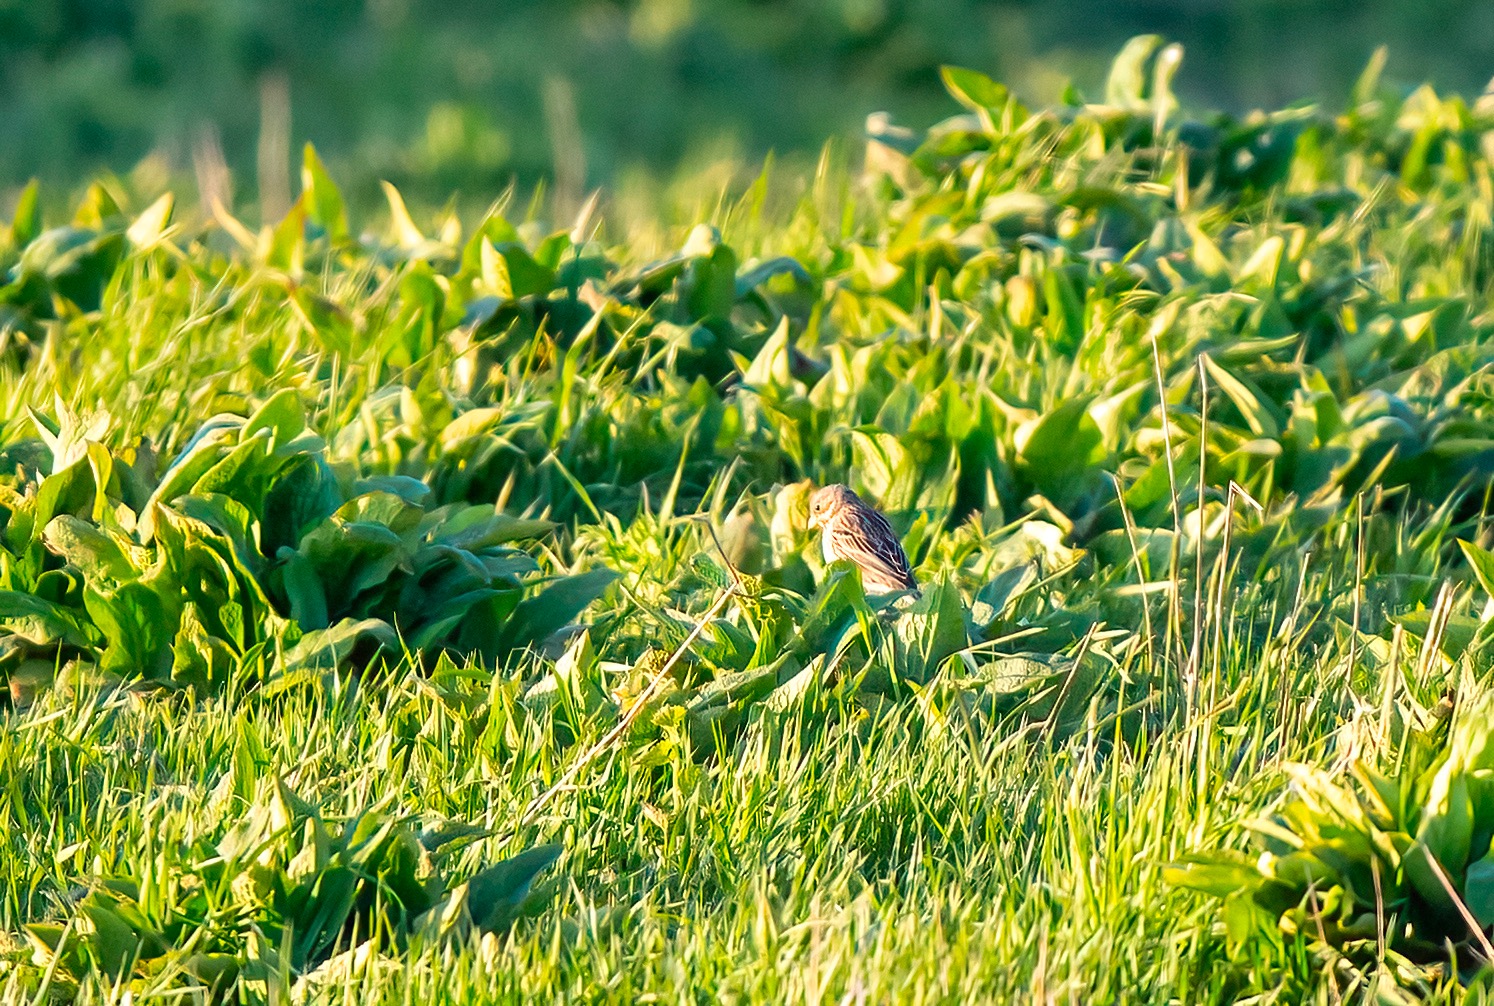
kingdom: Animalia
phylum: Chordata
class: Aves
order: Passeriformes
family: Emberizidae
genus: Emberiza
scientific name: Emberiza calandra
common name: Bomlærke
